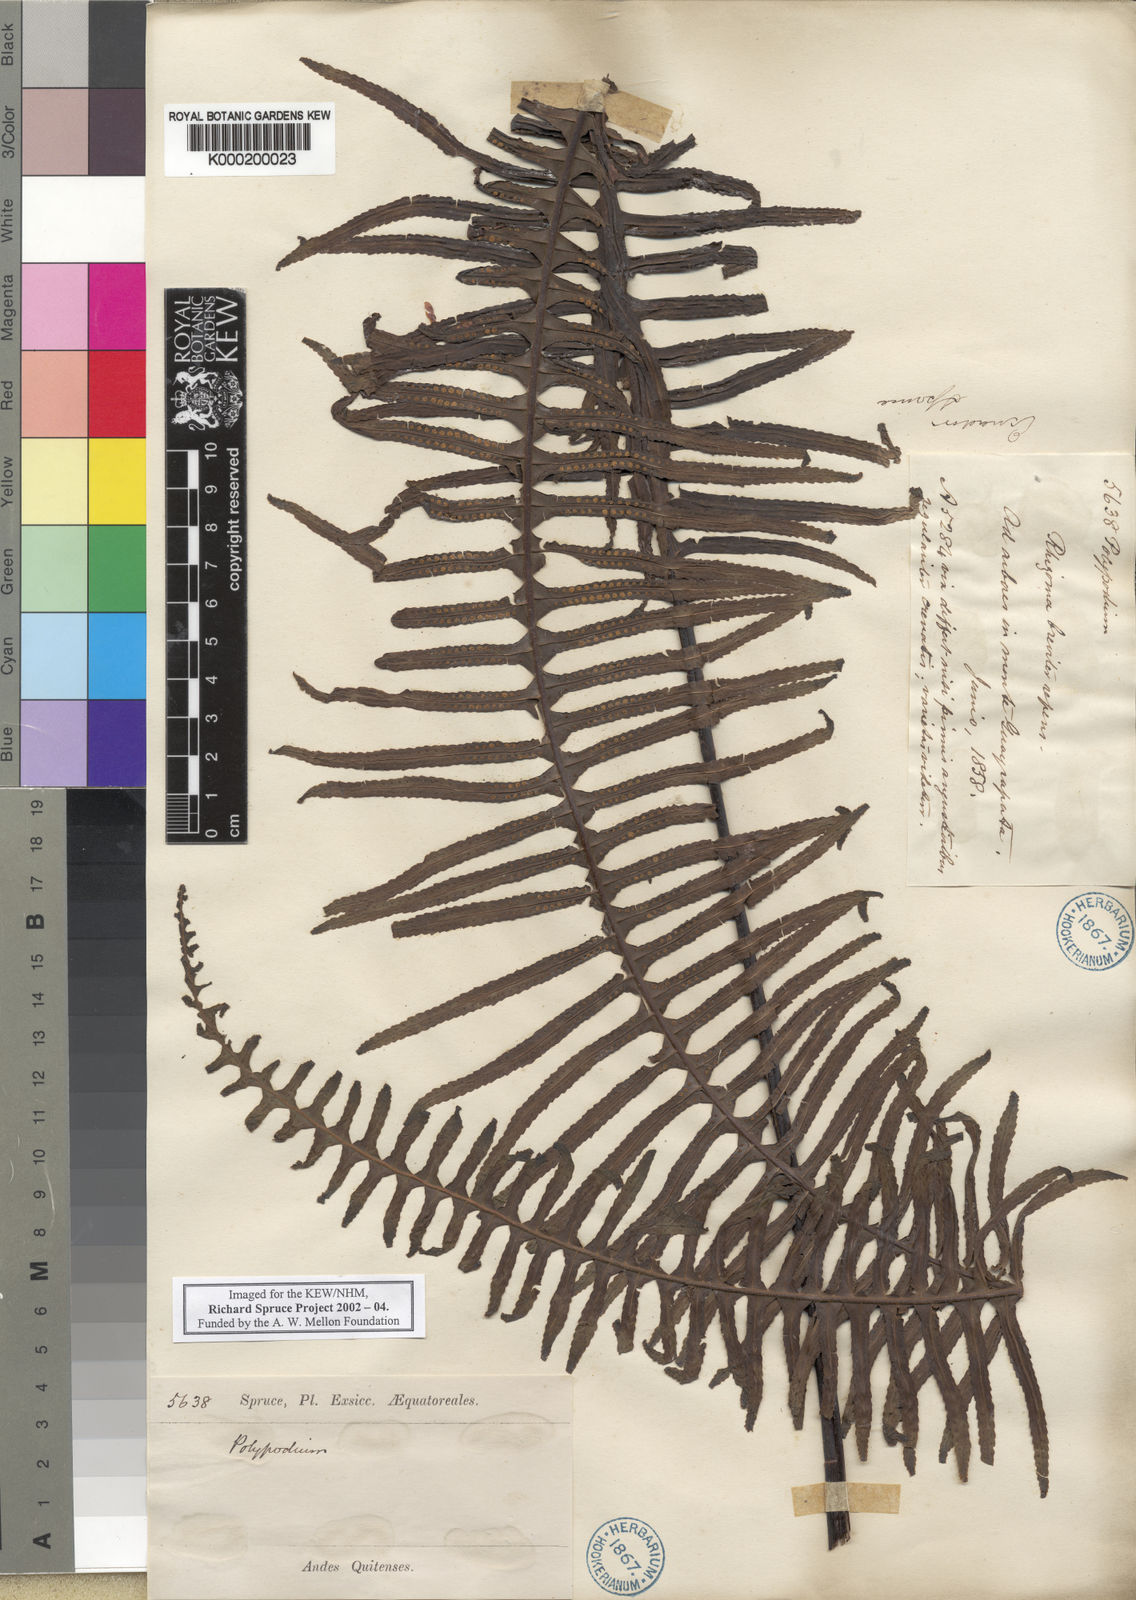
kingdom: Plantae
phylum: Tracheophyta
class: Polypodiopsida
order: Polypodiales
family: Polypodiaceae
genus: Pecluma
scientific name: Pecluma divaricata
